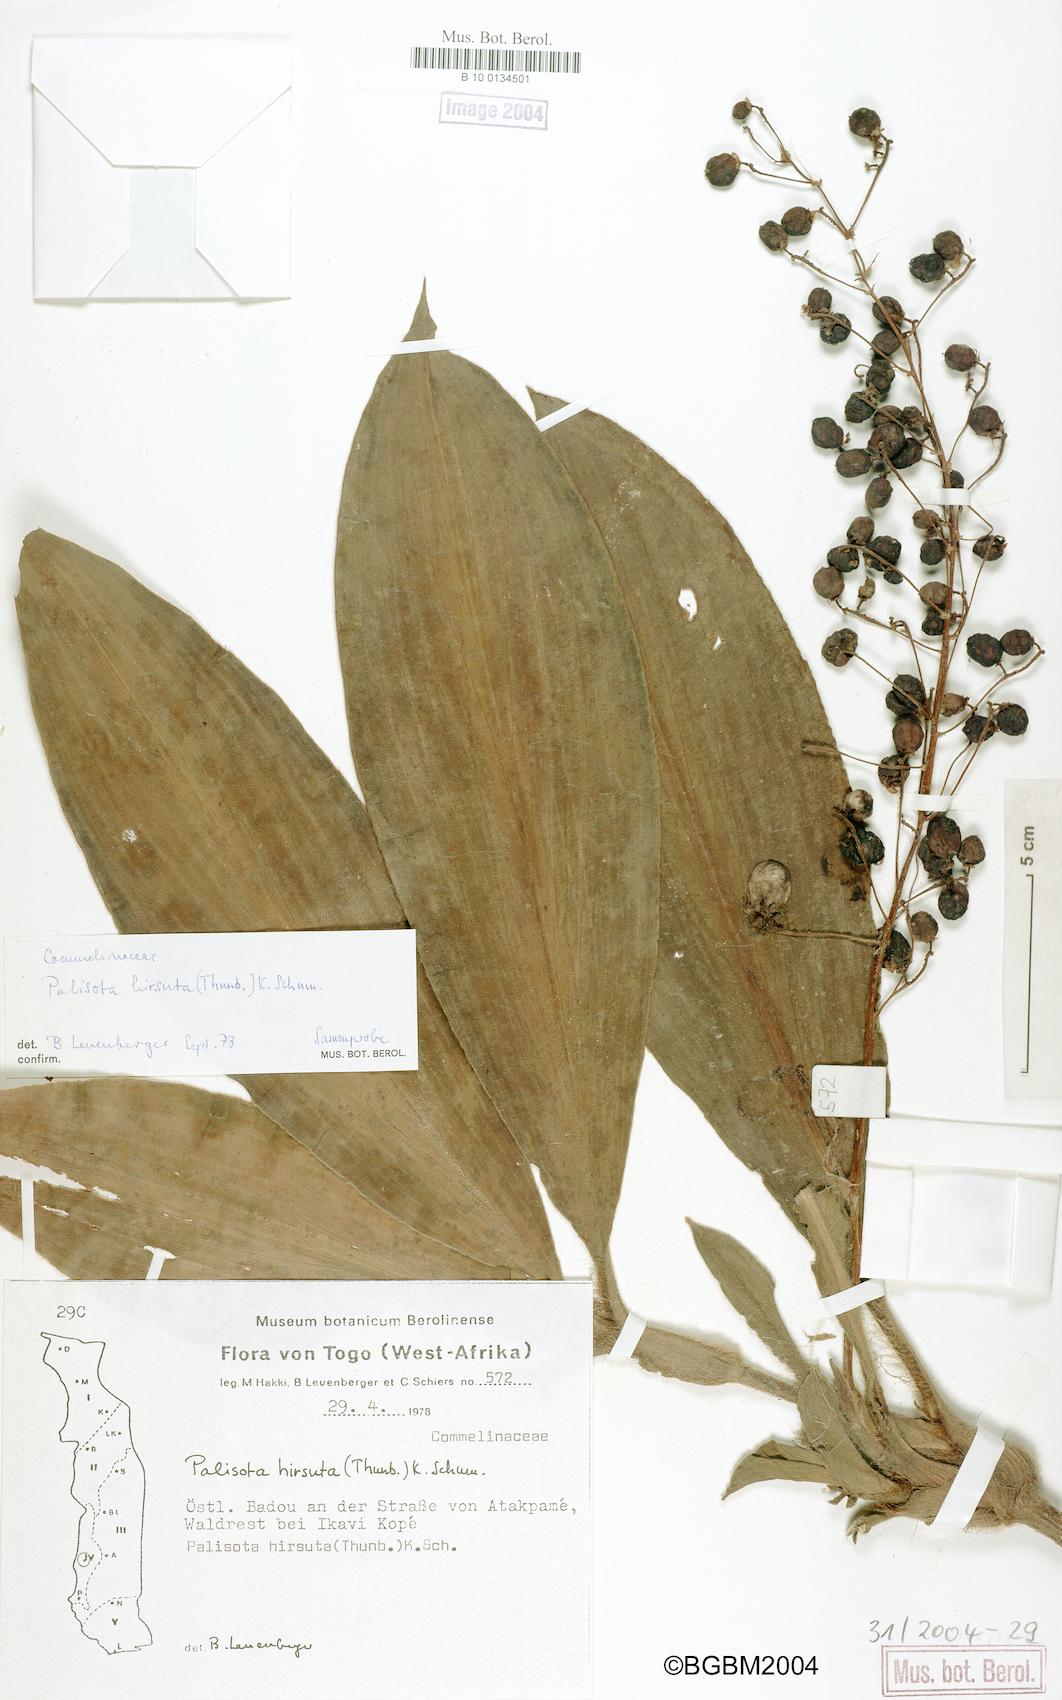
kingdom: Plantae
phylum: Tracheophyta
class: Liliopsida
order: Commelinales
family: Commelinaceae
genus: Palisota
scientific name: Palisota hirsuta
